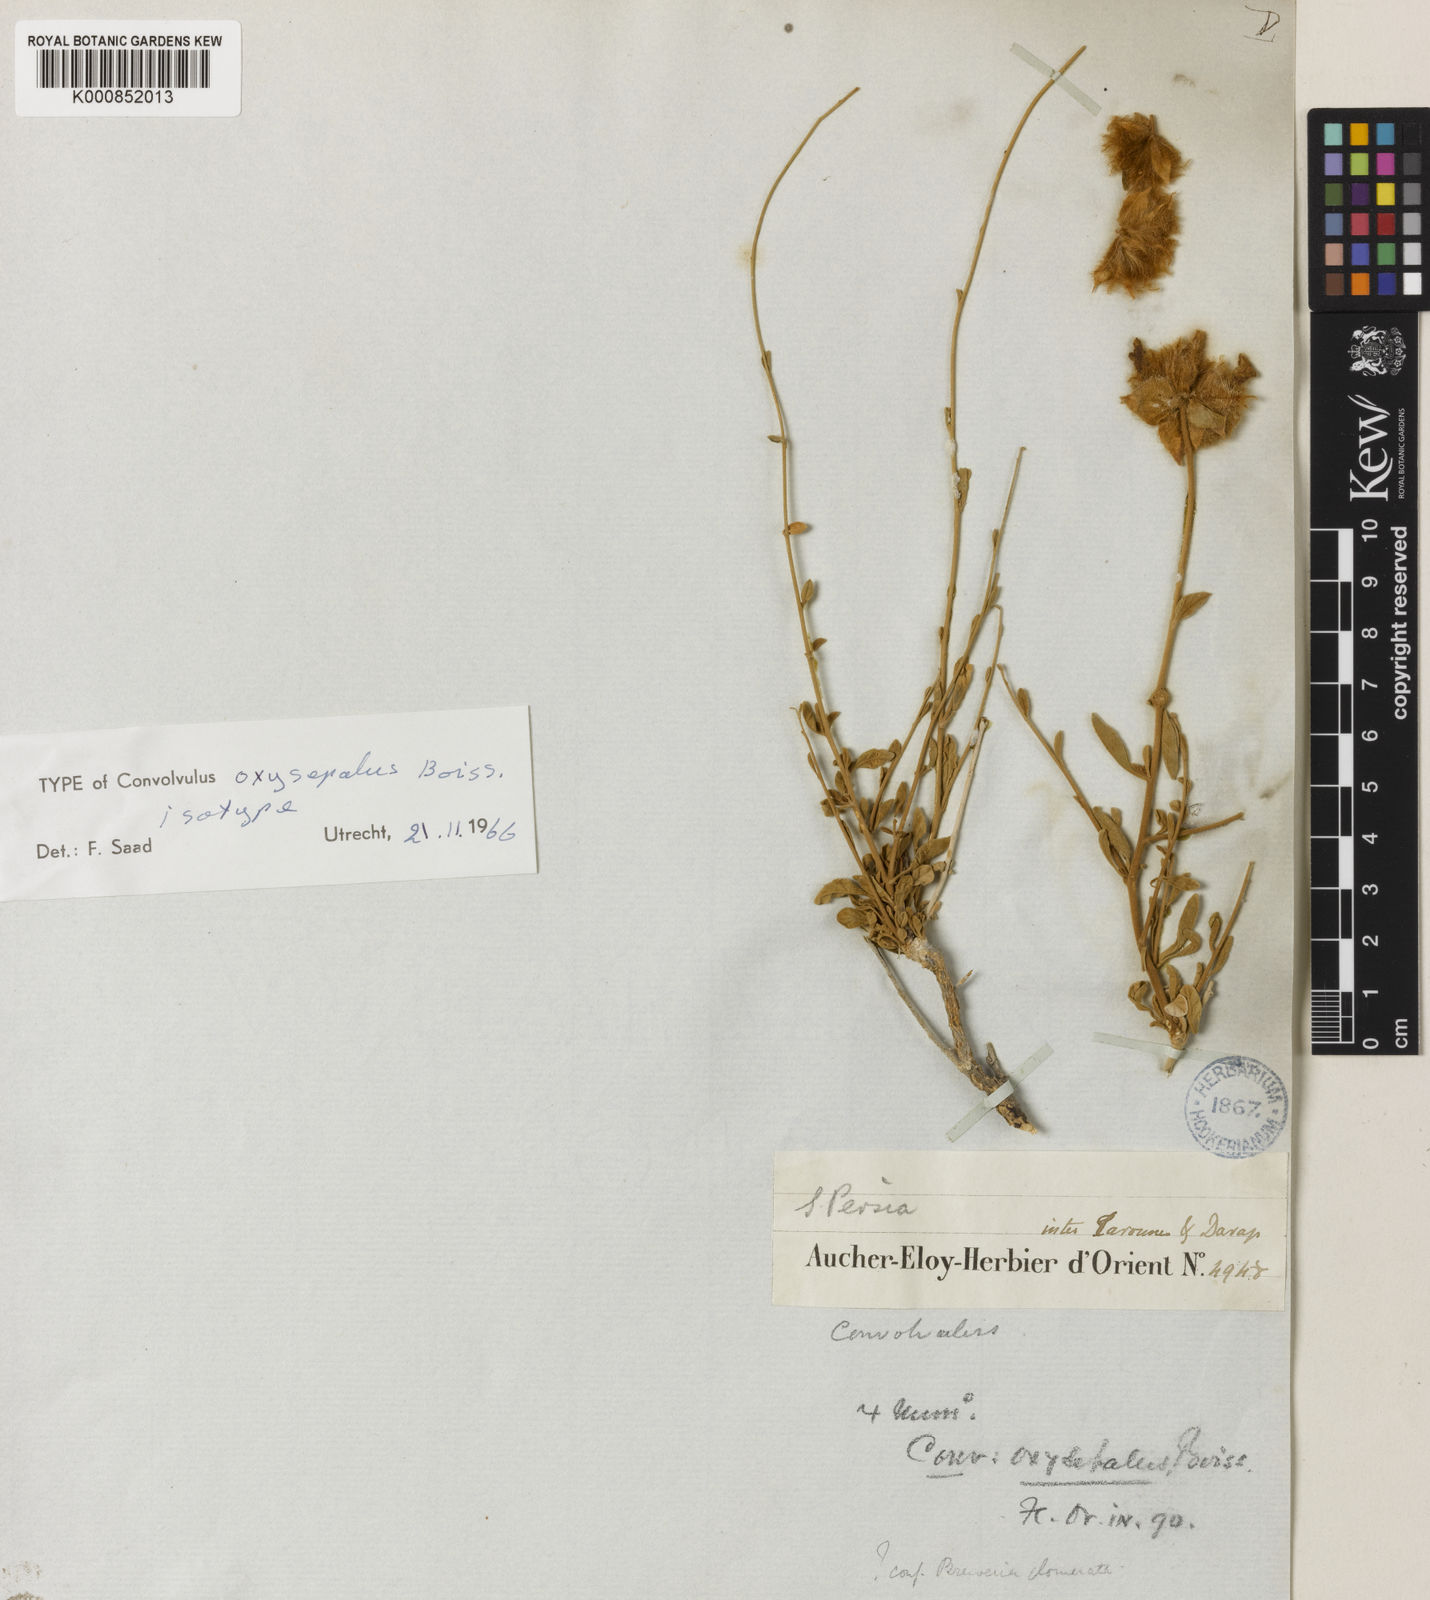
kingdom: Plantae
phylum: Tracheophyta
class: Magnoliopsida
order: Solanales
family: Convolvulaceae
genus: Convolvulus
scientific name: Convolvulus oxysepalus
